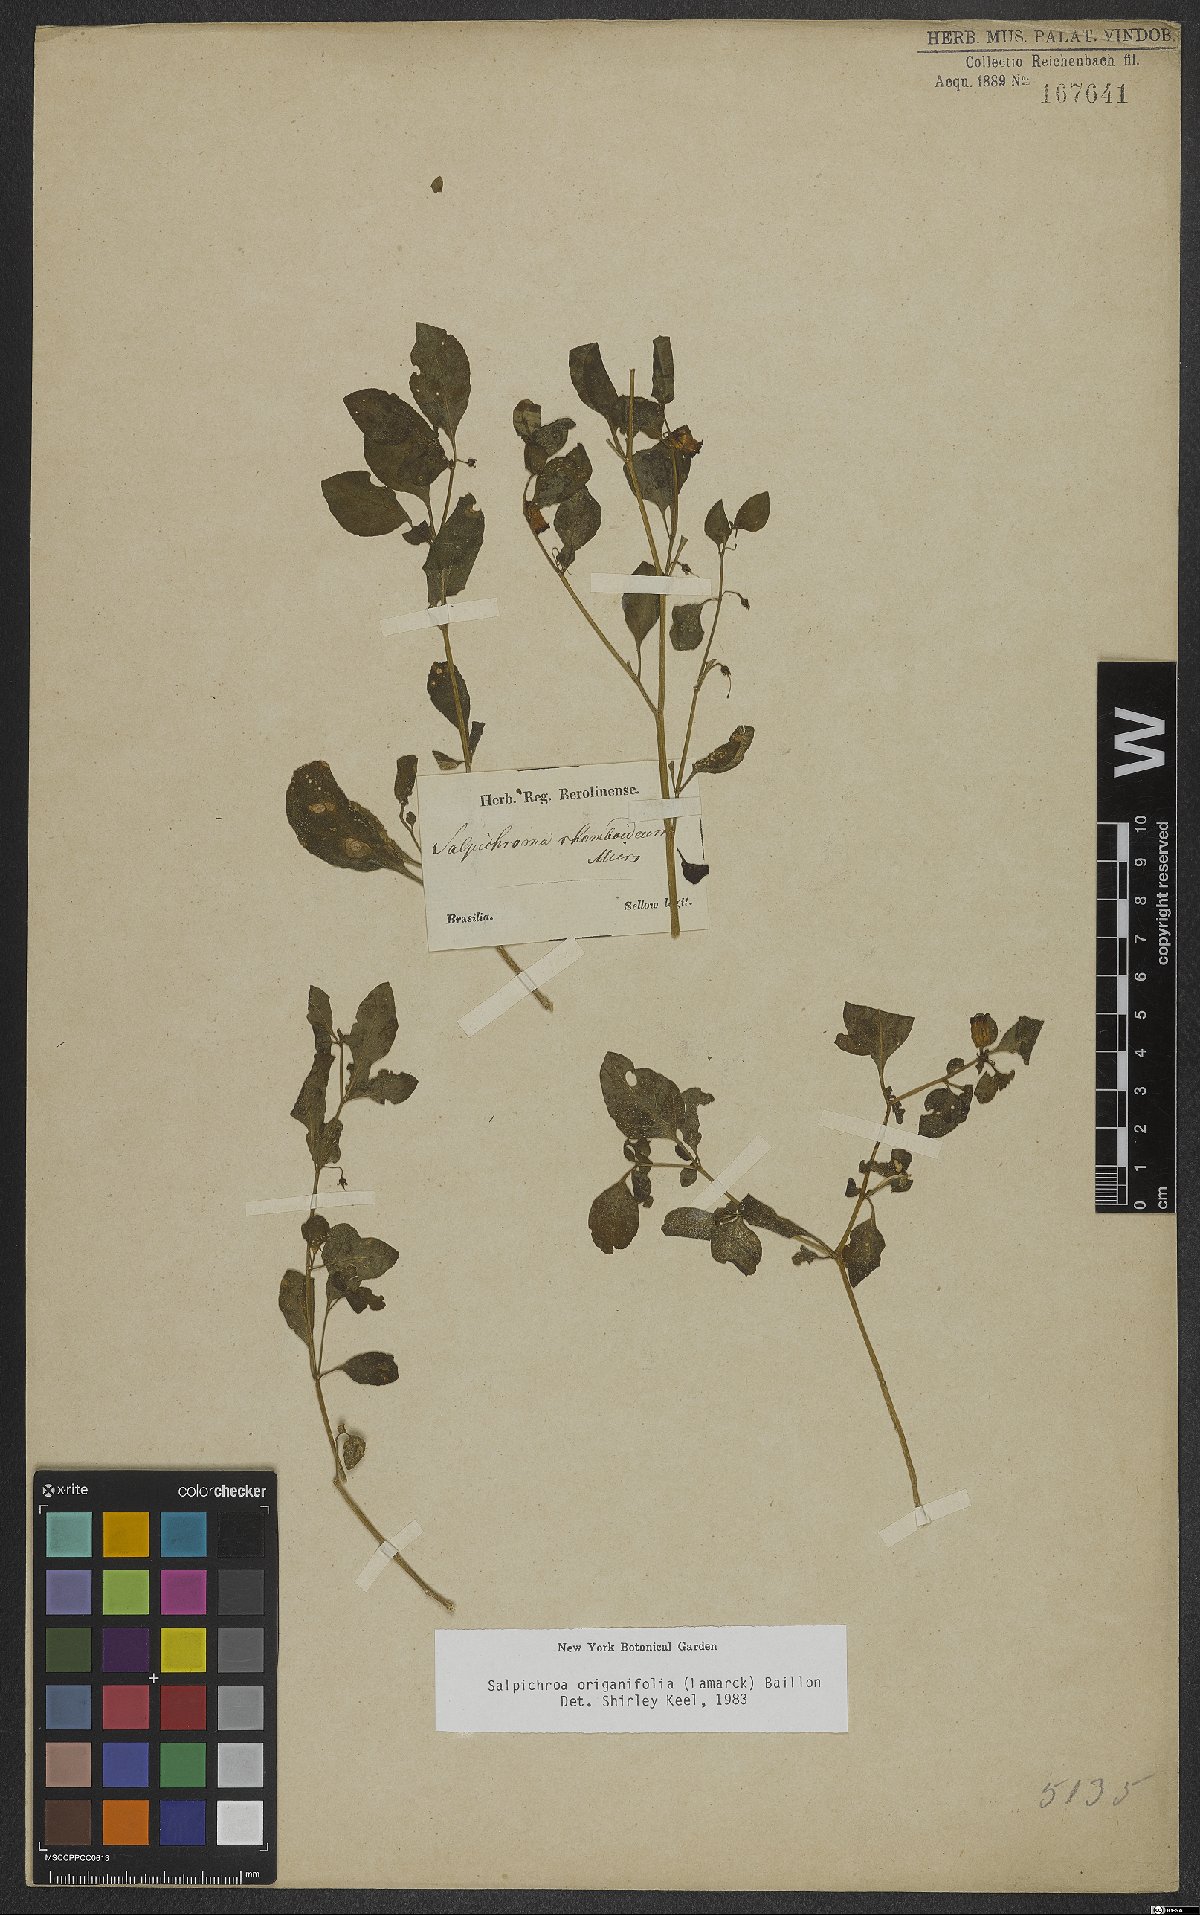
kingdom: Plantae
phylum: Tracheophyta
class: Magnoliopsida
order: Solanales
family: Solanaceae
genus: Salpichroa
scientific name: Salpichroa origanifolia
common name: Lily-of-the-valley-vine
